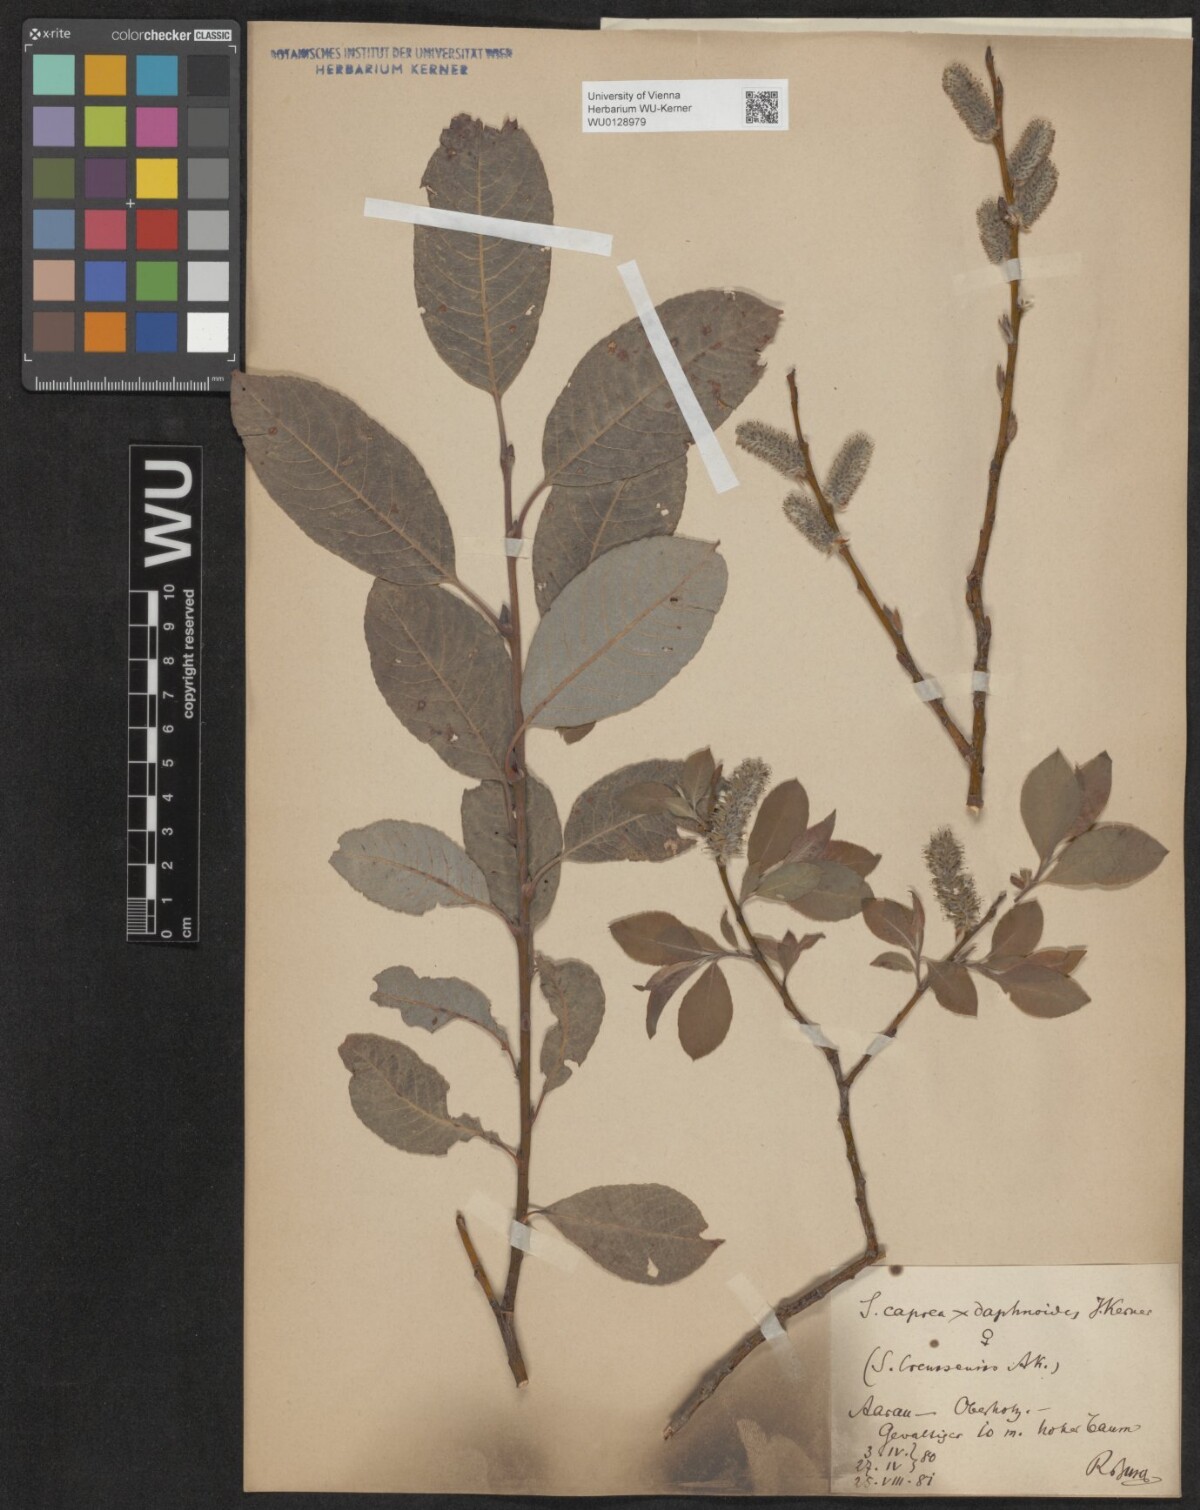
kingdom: Plantae
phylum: Tracheophyta
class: Magnoliopsida
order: Malpighiales
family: Salicaceae
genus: Salix
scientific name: Salix erdingeri
